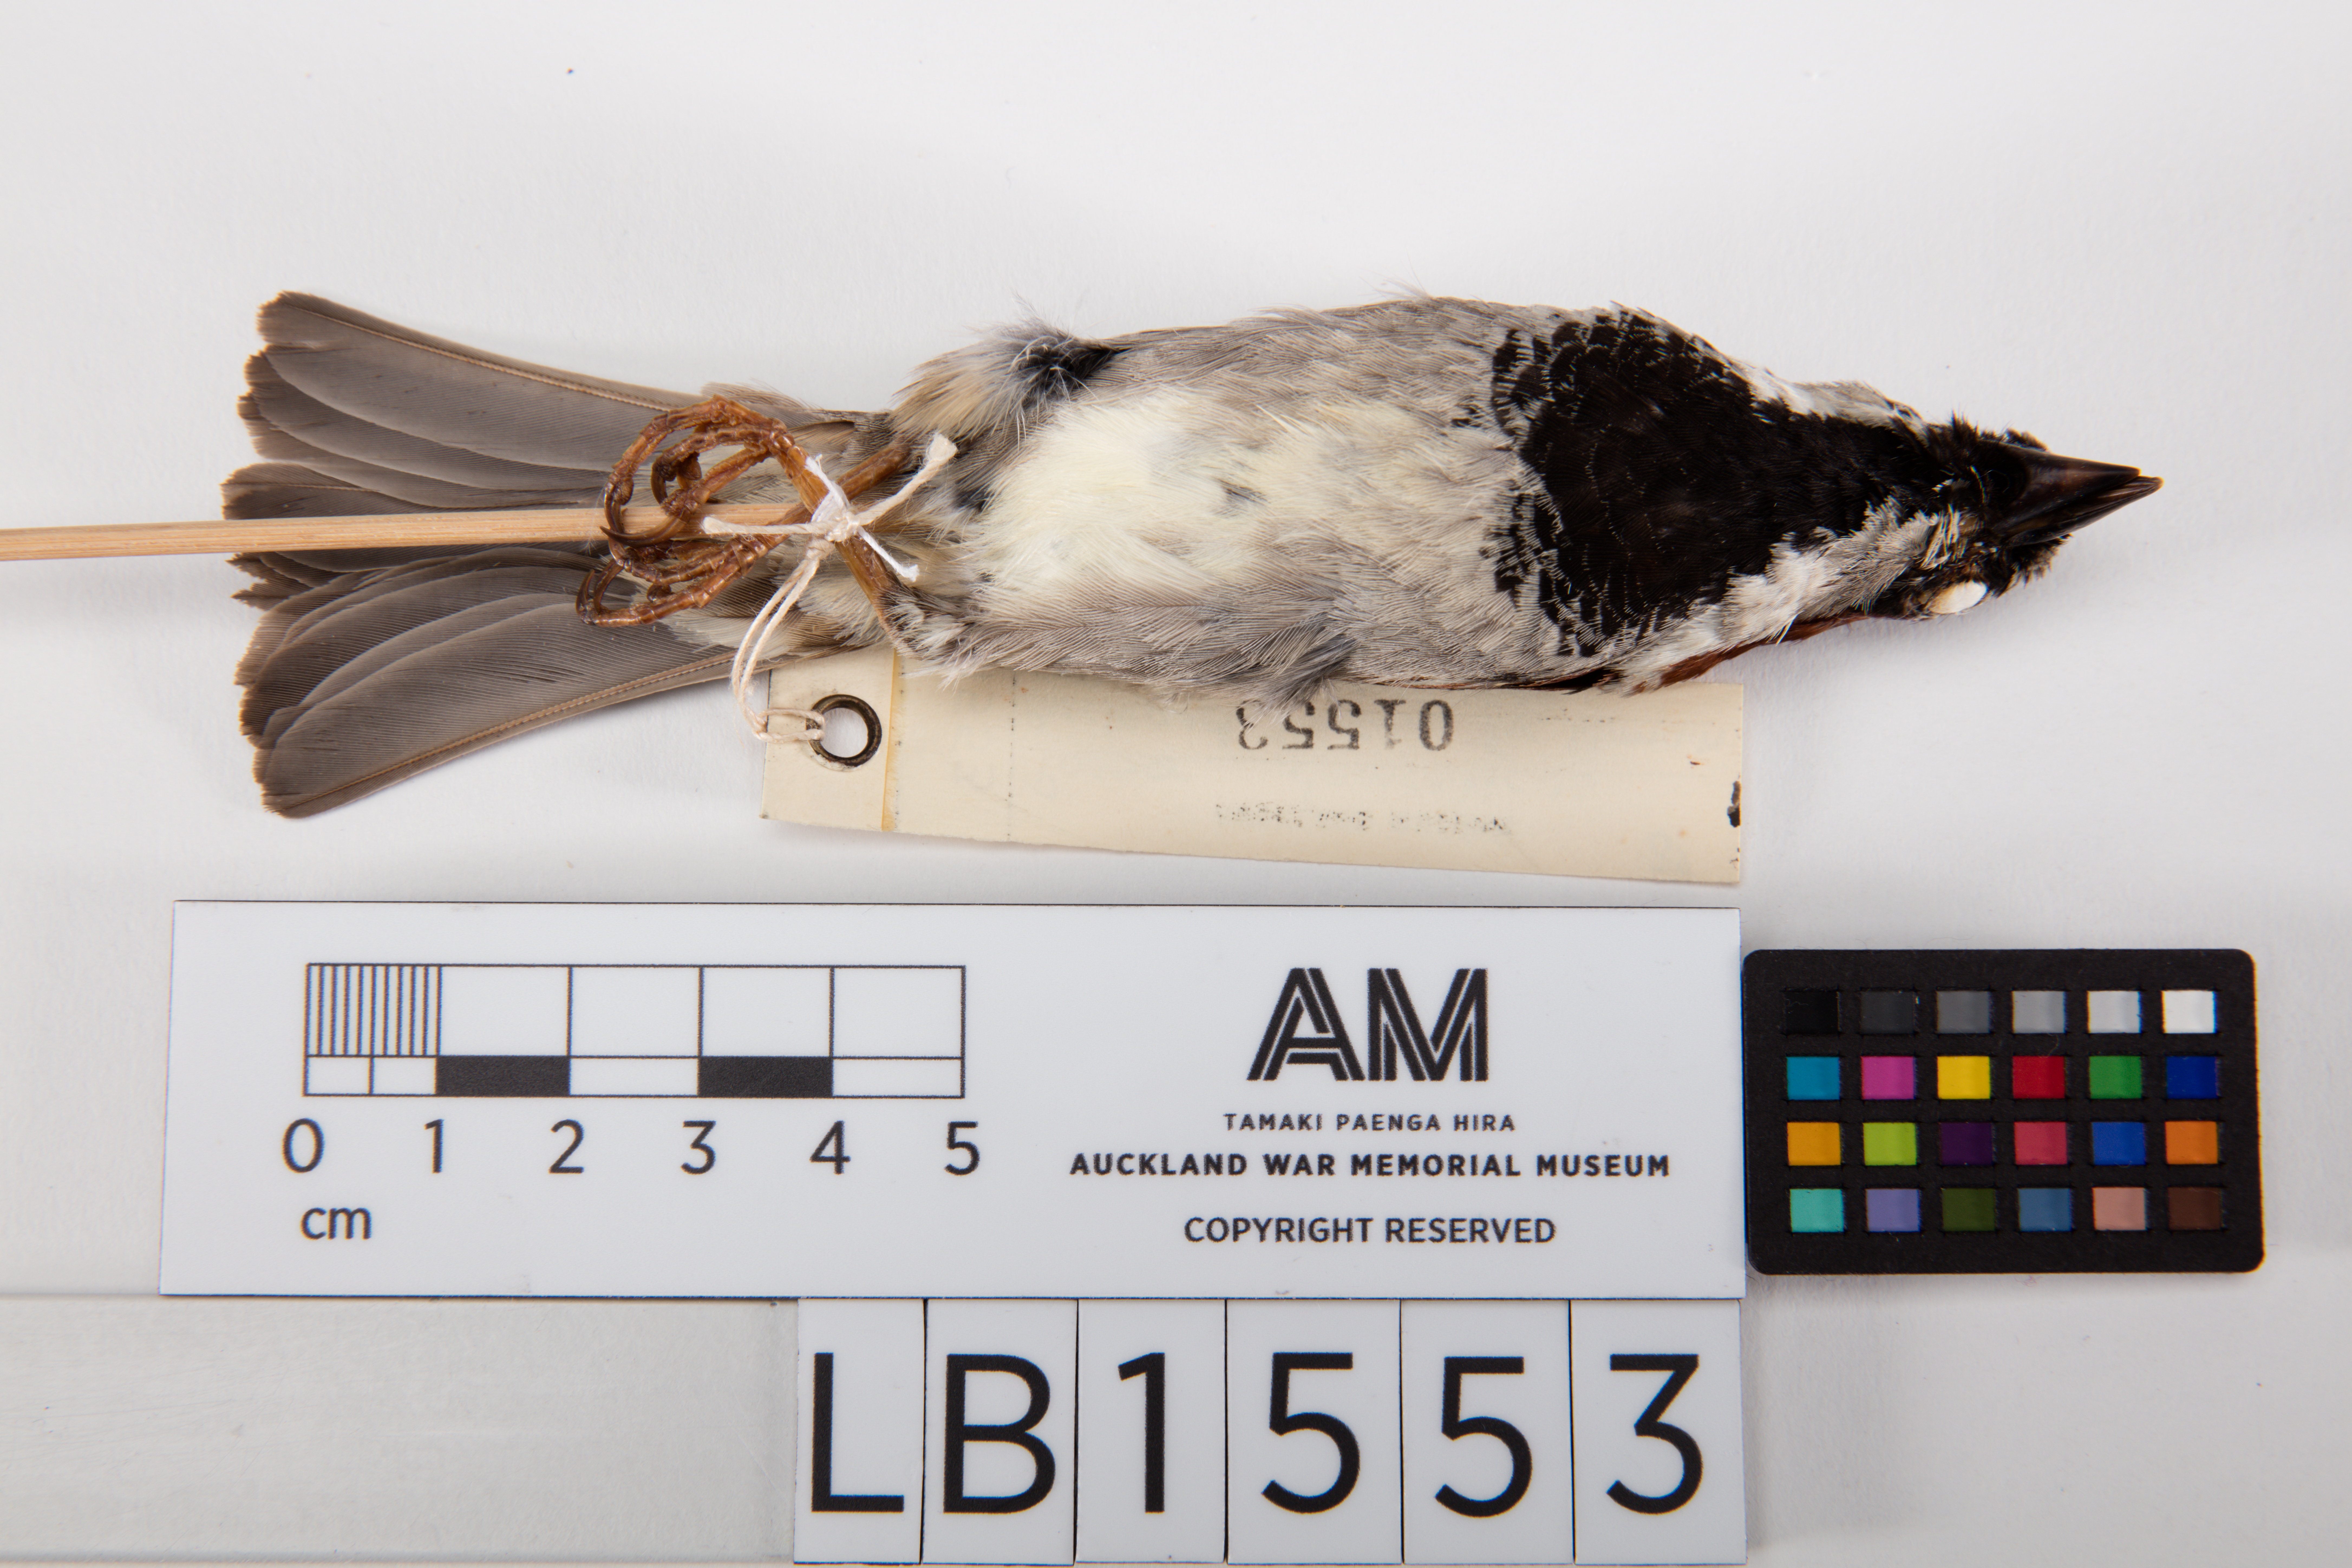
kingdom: Animalia
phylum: Chordata
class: Aves
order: Passeriformes
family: Passeridae
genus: Passer
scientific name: Passer domesticus
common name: House sparrow
